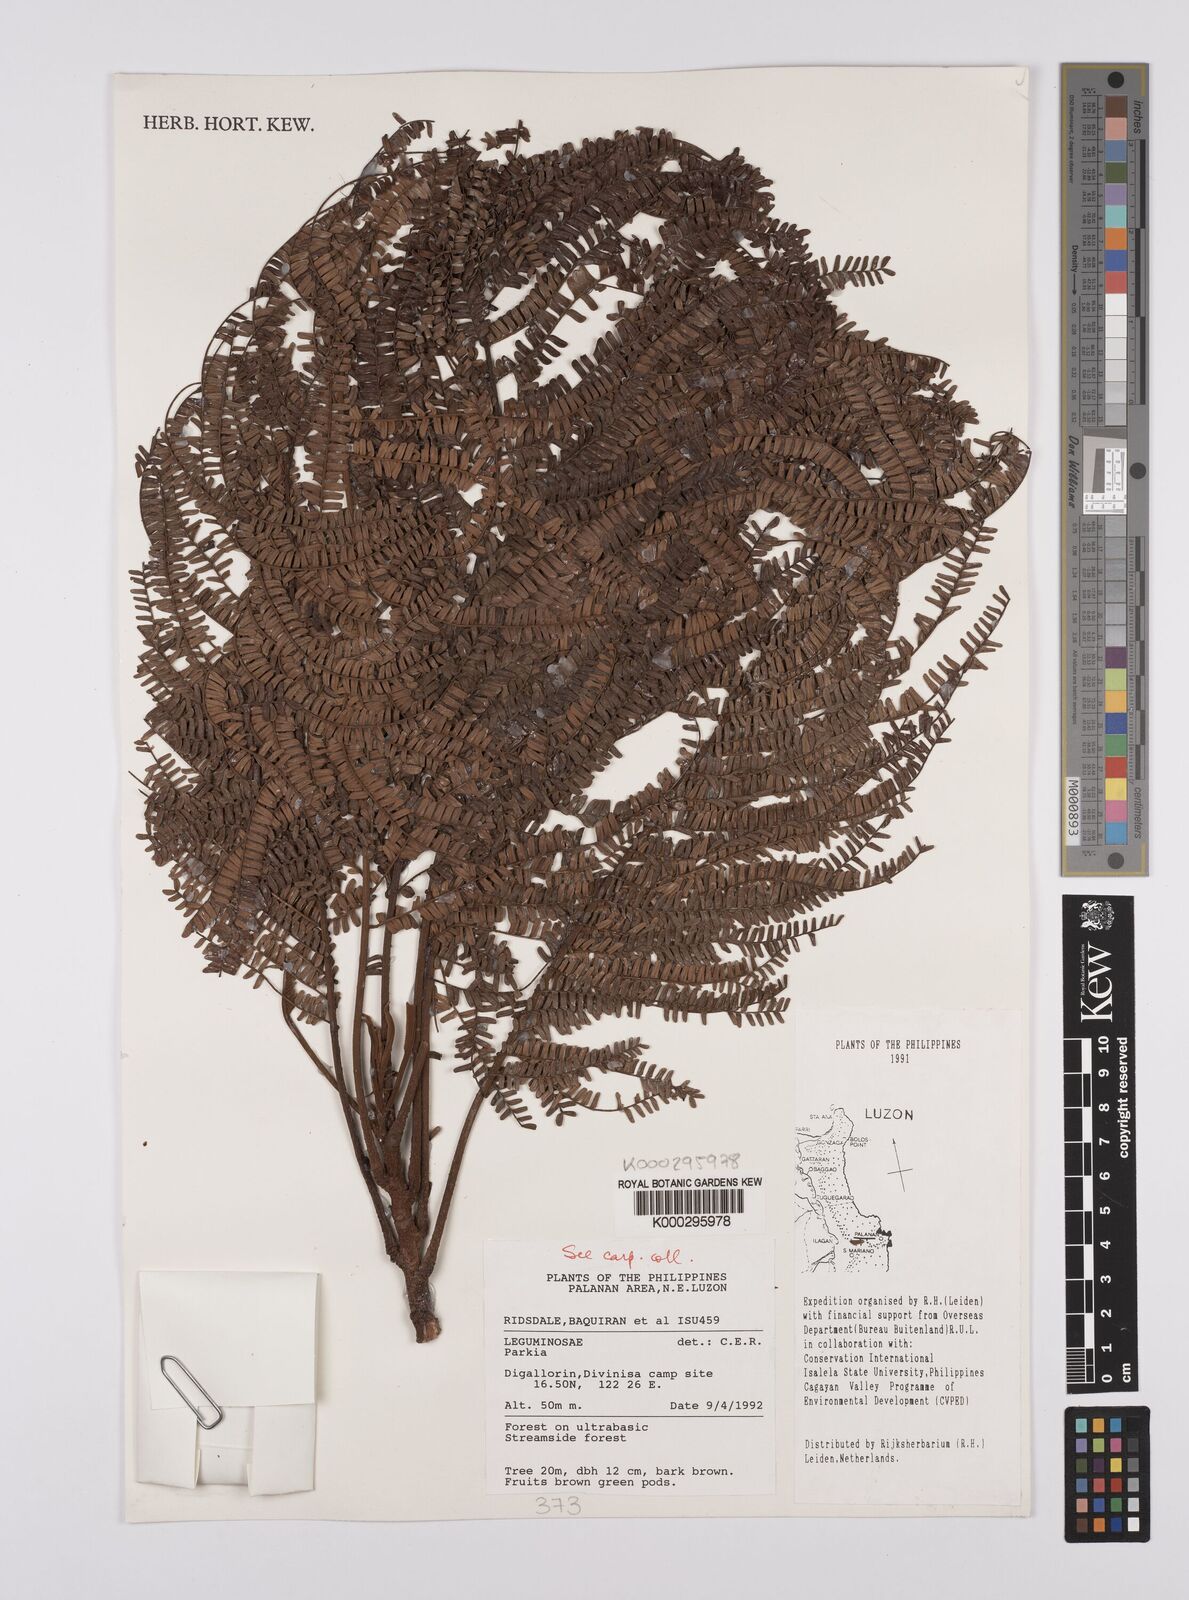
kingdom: Plantae
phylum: Tracheophyta
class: Magnoliopsida
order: Fabales
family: Fabaceae
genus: Parkia
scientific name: Parkia
